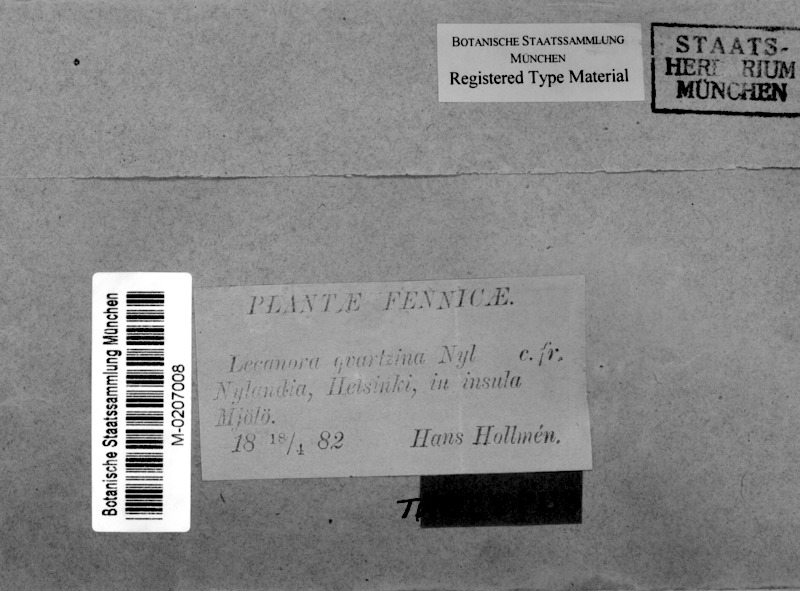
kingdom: Fungi
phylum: Ascomycota
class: Lecanoromycetes
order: Lecanorales
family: Lecanoraceae
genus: Polyozosia
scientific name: Polyozosia actophila
